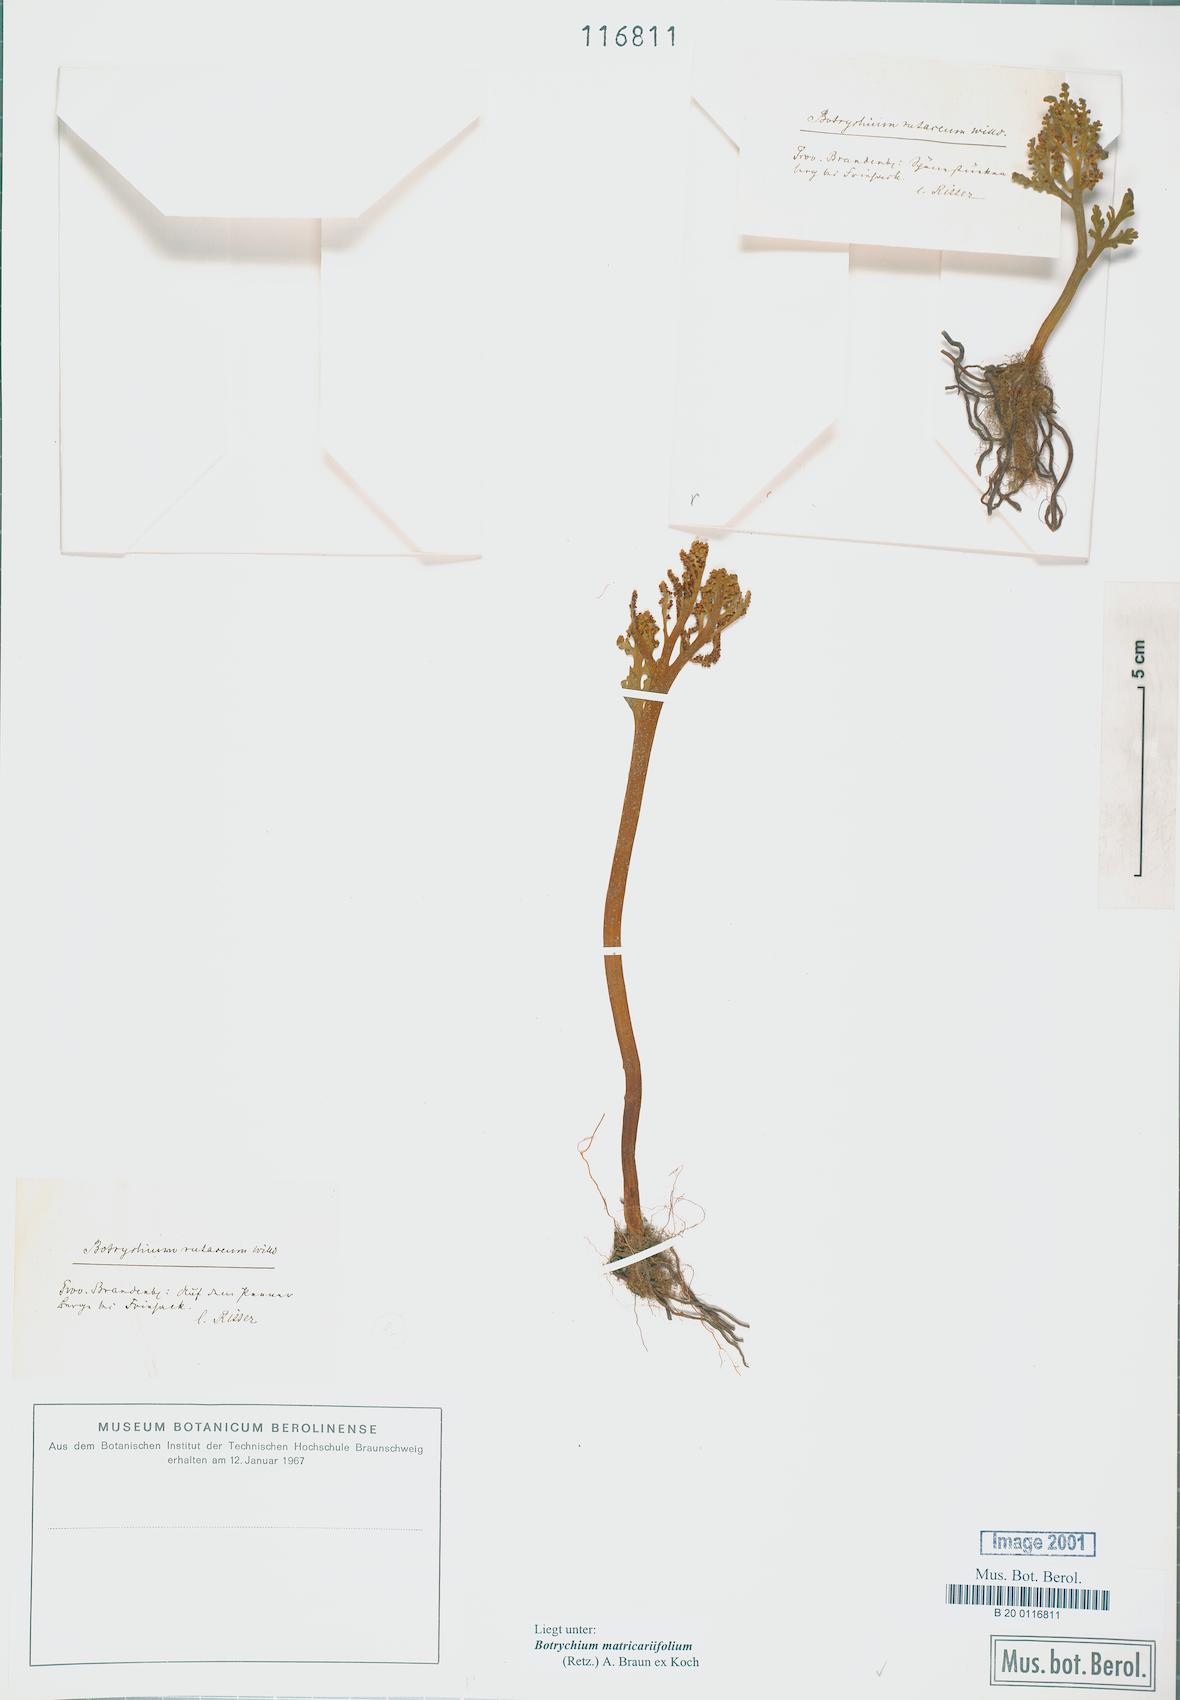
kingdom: Plantae
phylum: Tracheophyta
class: Polypodiopsida
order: Ophioglossales
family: Ophioglossaceae
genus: Botrychium
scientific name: Botrychium matricariifolium
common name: Branched moonwort
